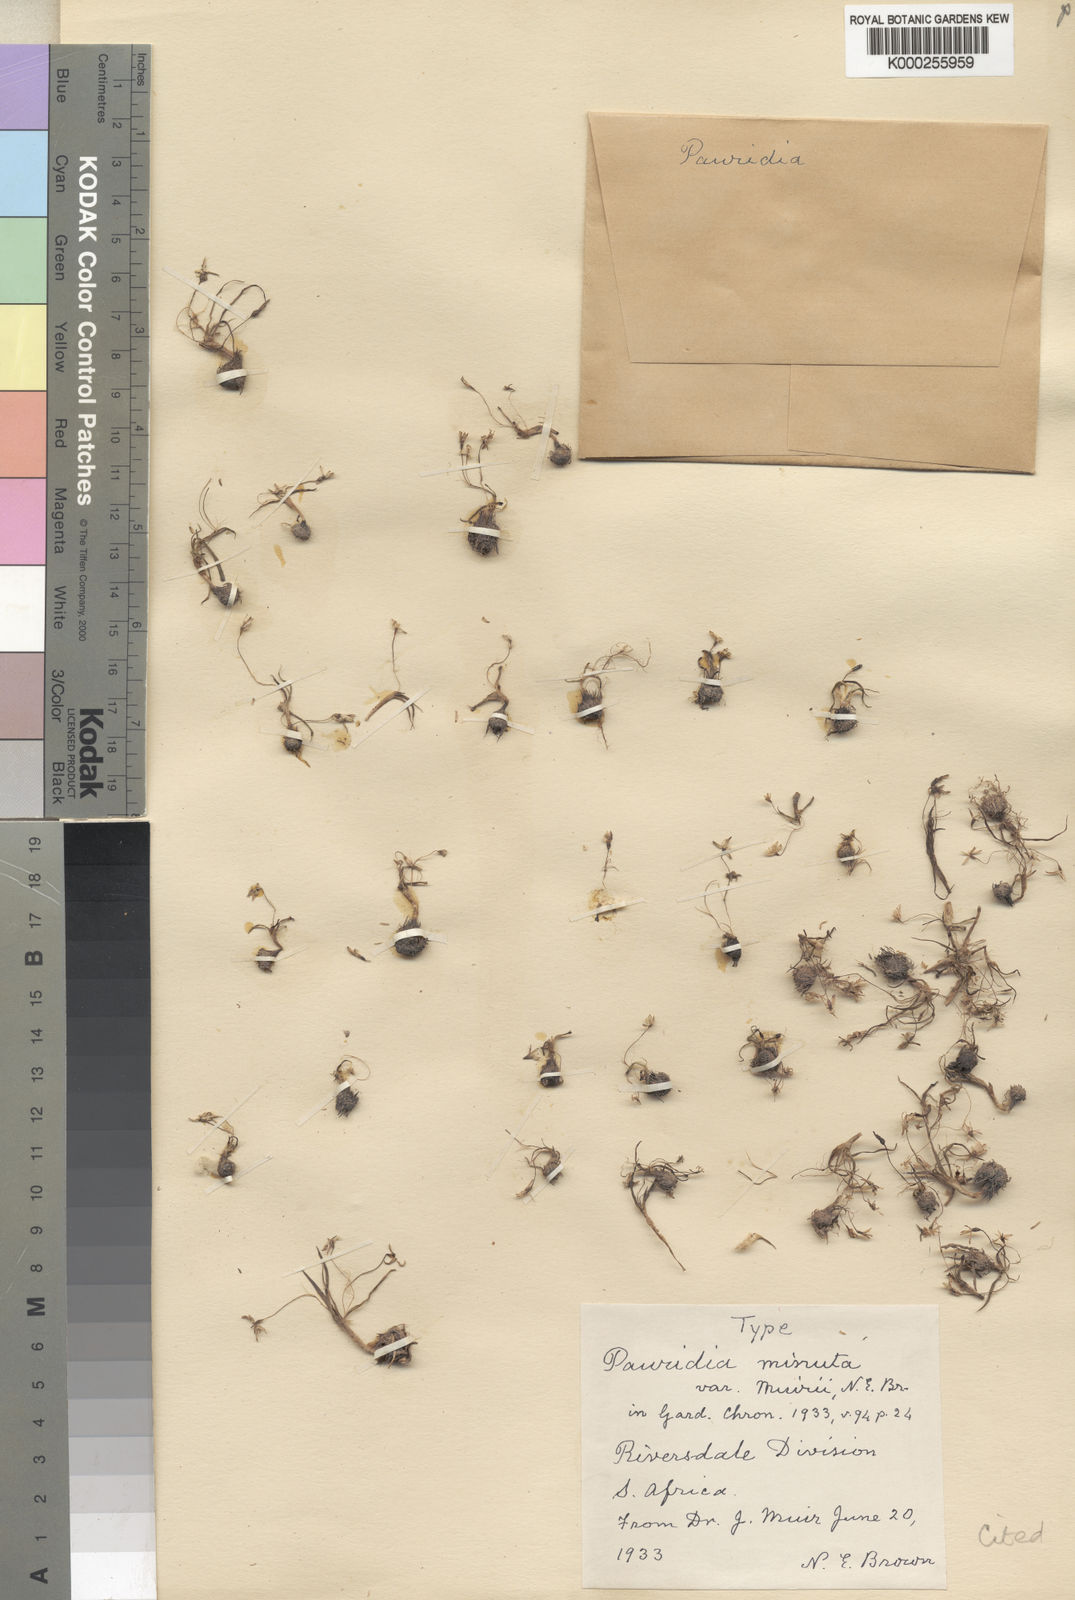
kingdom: Plantae
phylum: Tracheophyta
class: Liliopsida
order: Asparagales
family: Hypoxidaceae
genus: Pauridia
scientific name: Pauridia minuta
